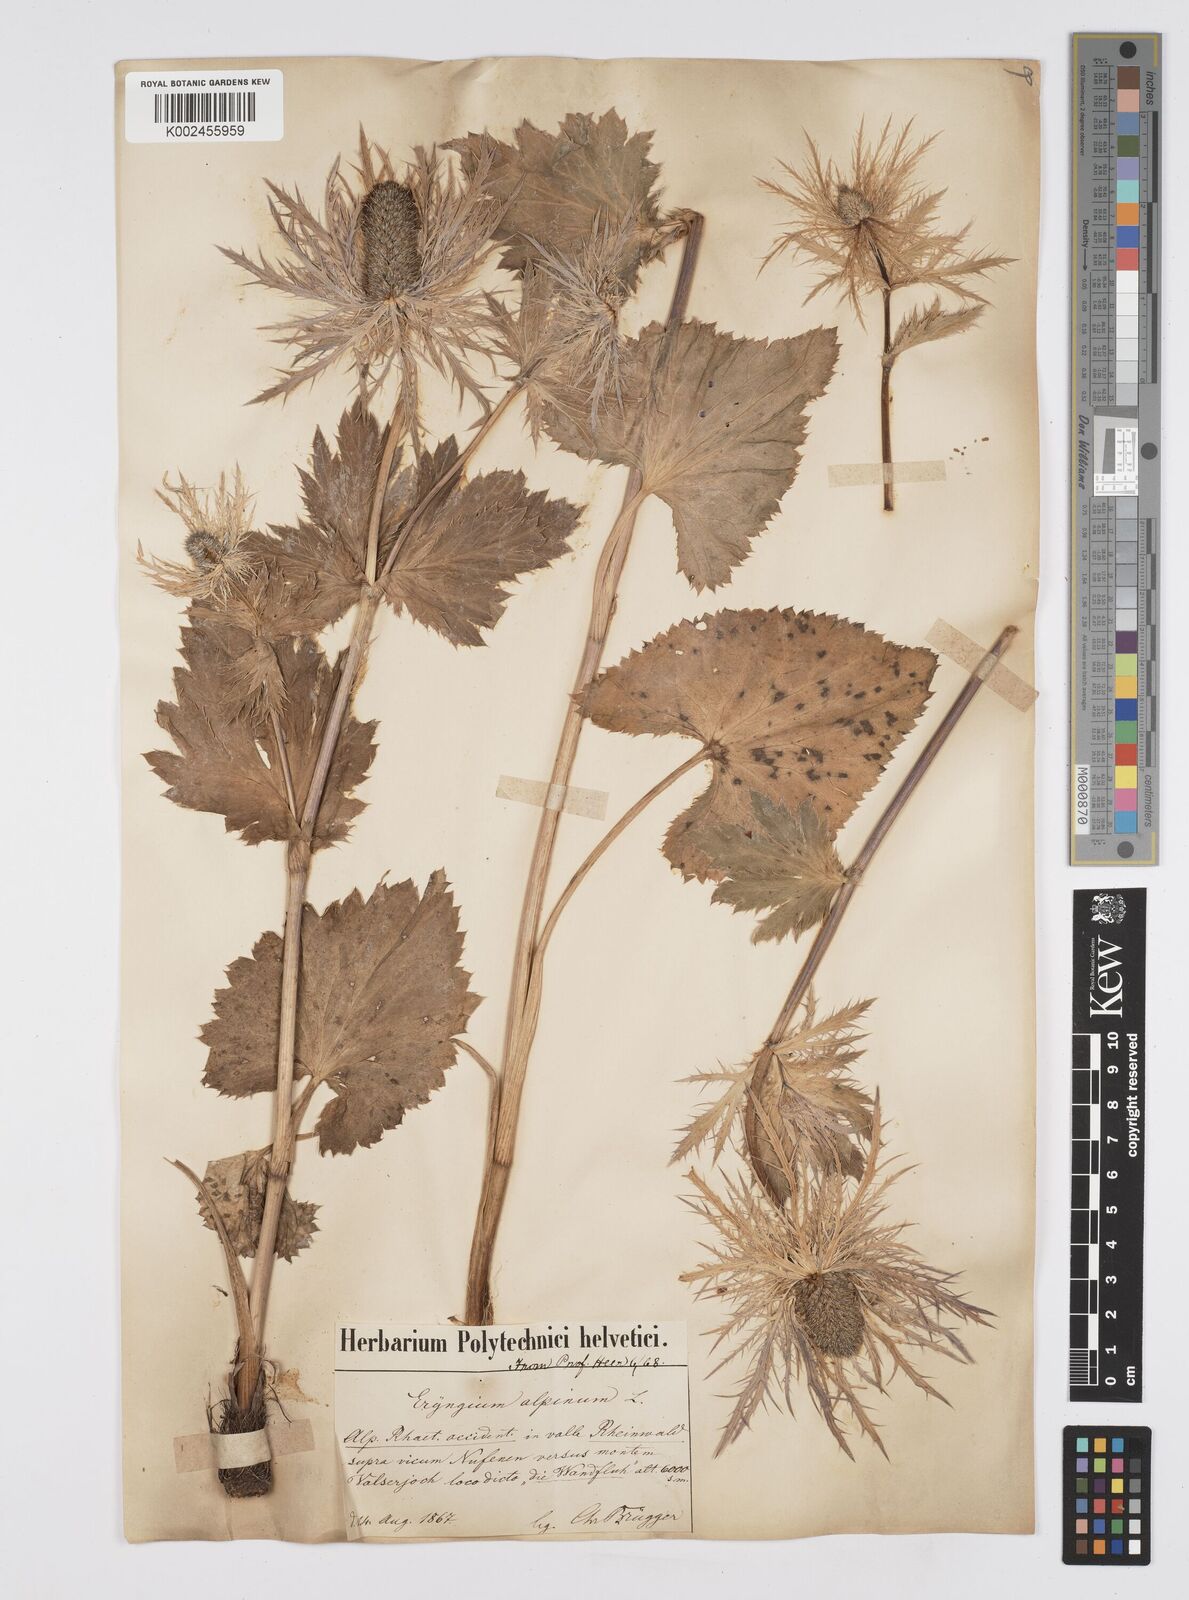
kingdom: Plantae
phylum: Tracheophyta
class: Magnoliopsida
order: Apiales
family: Apiaceae
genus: Eryngium
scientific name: Eryngium alpinum
